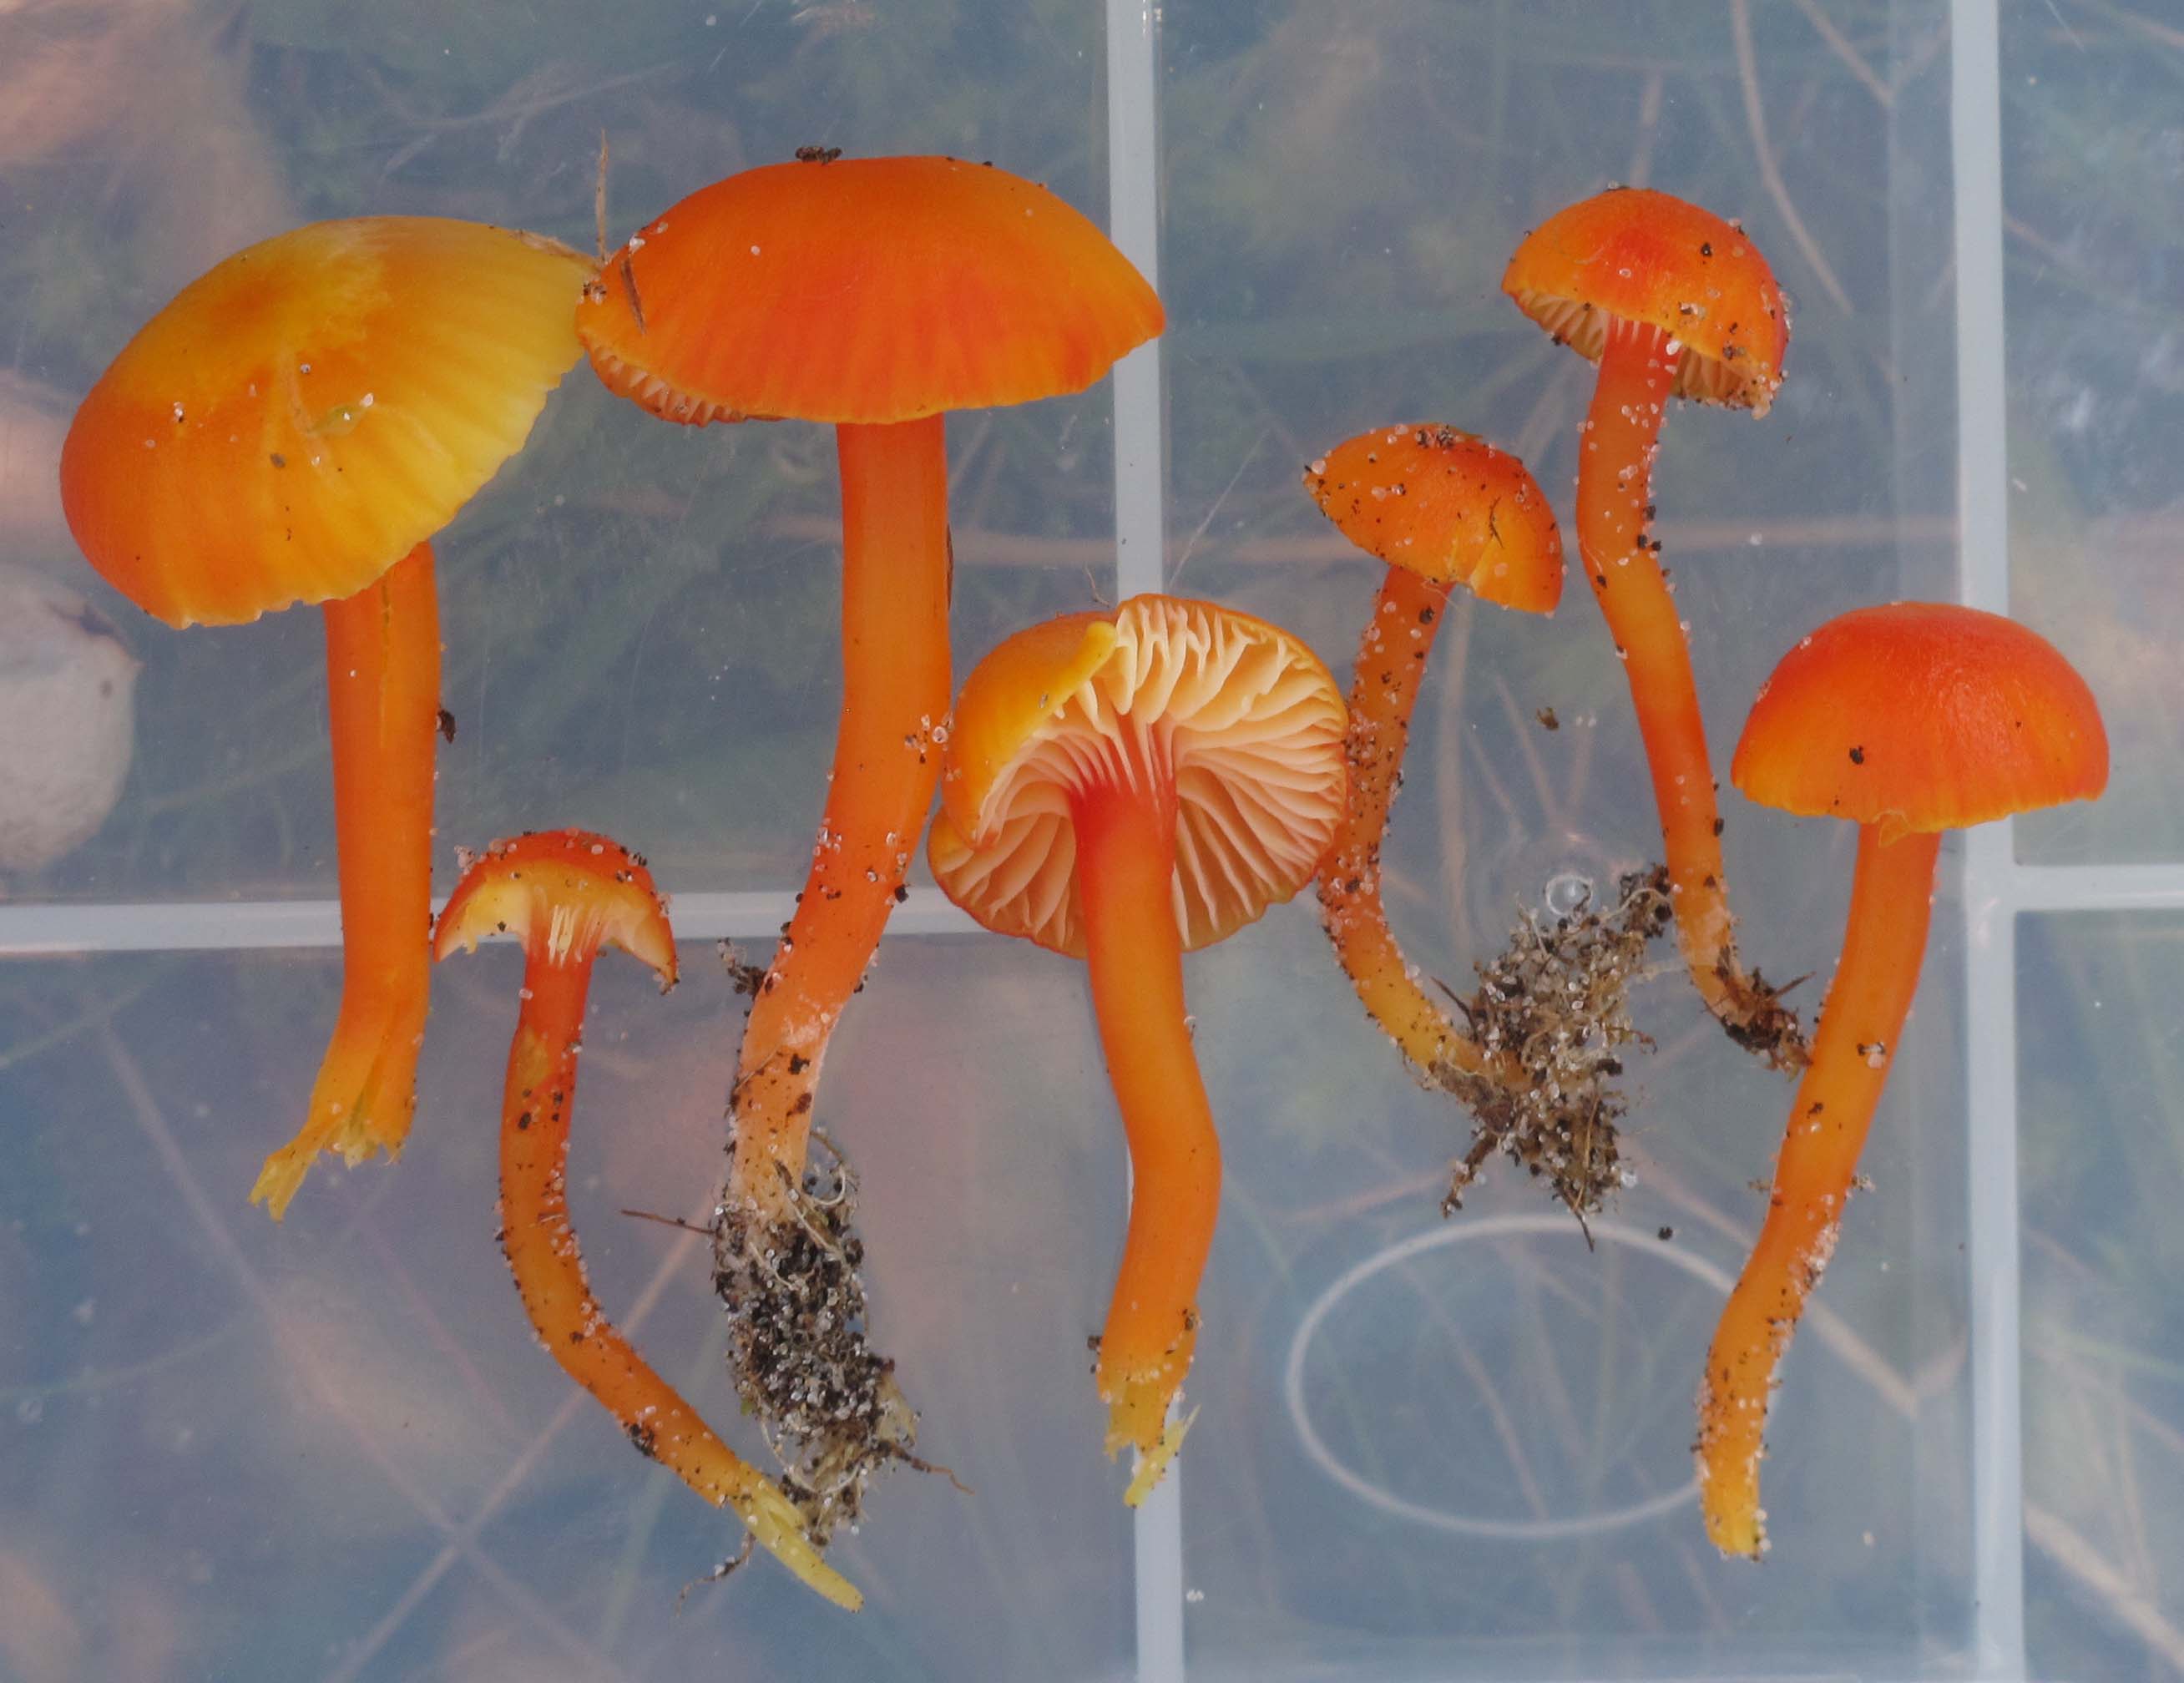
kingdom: Fungi
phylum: Basidiomycota
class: Agaricomycetes
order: Agaricales
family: Hygrophoraceae
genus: Hygrocybe
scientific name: Hygrocybe insipida
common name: liden vokshat
